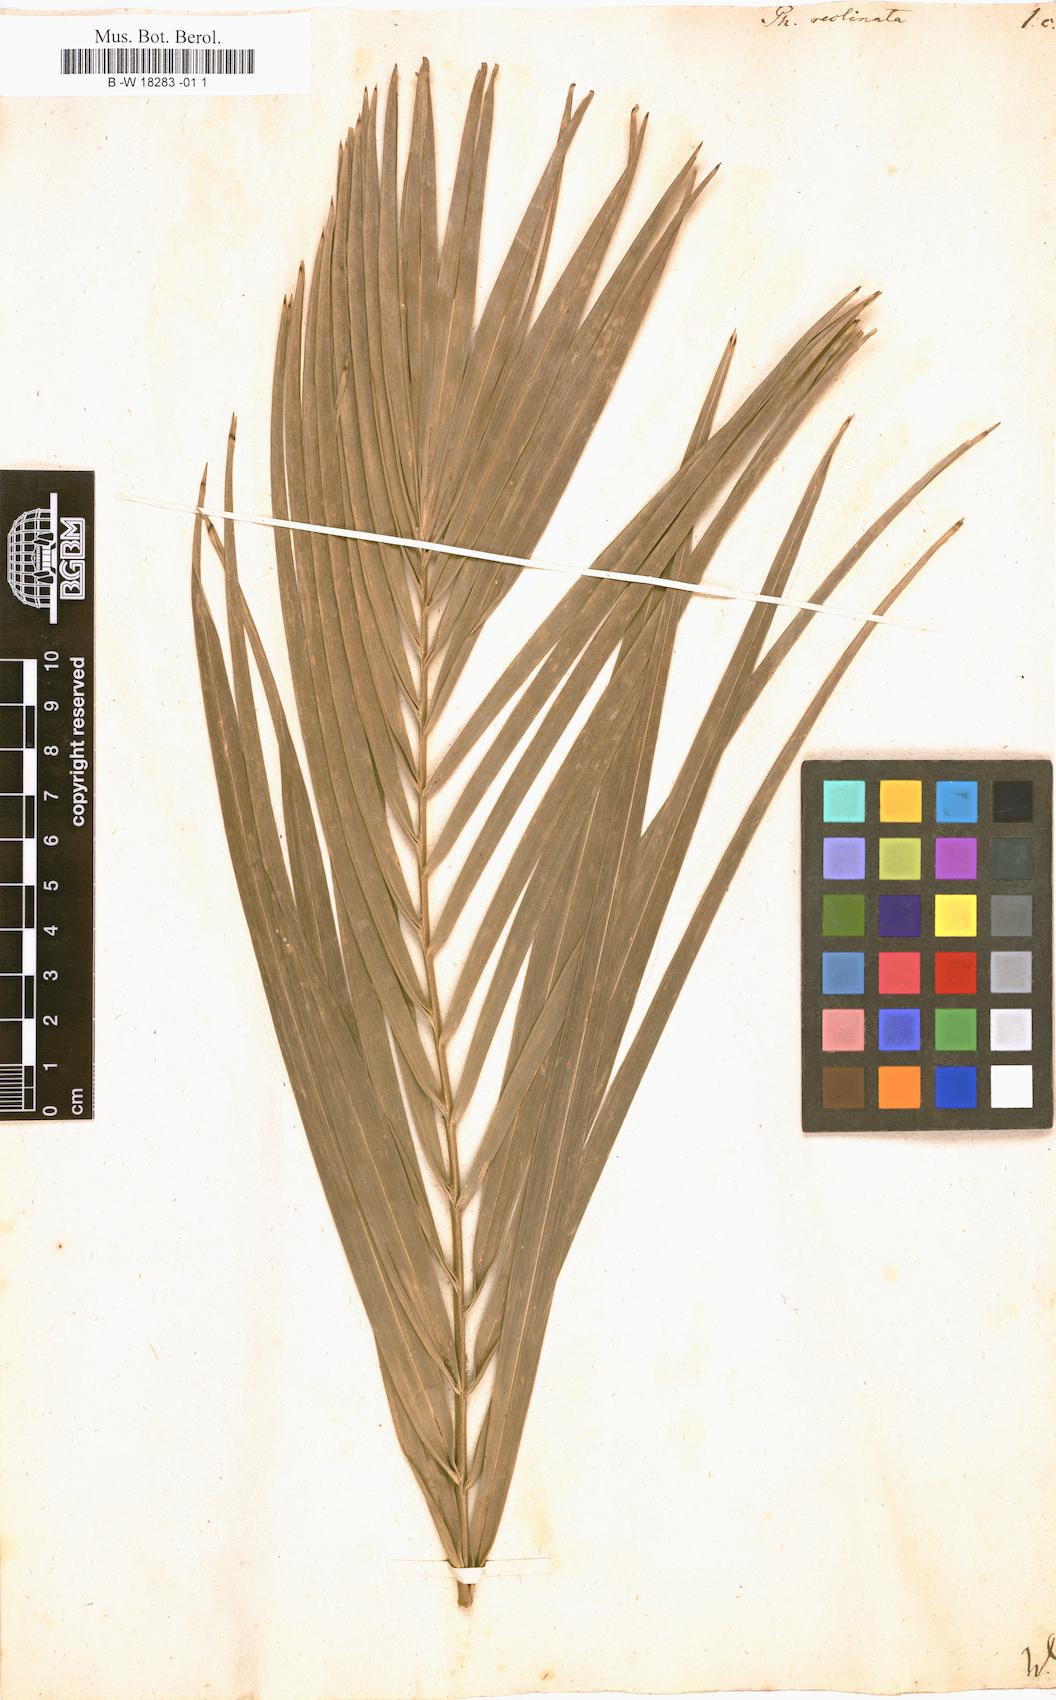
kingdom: Plantae
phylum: Tracheophyta
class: Liliopsida
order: Arecales
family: Arecaceae
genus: Phoenix
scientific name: Phoenix reclinata
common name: Senegal date palm
